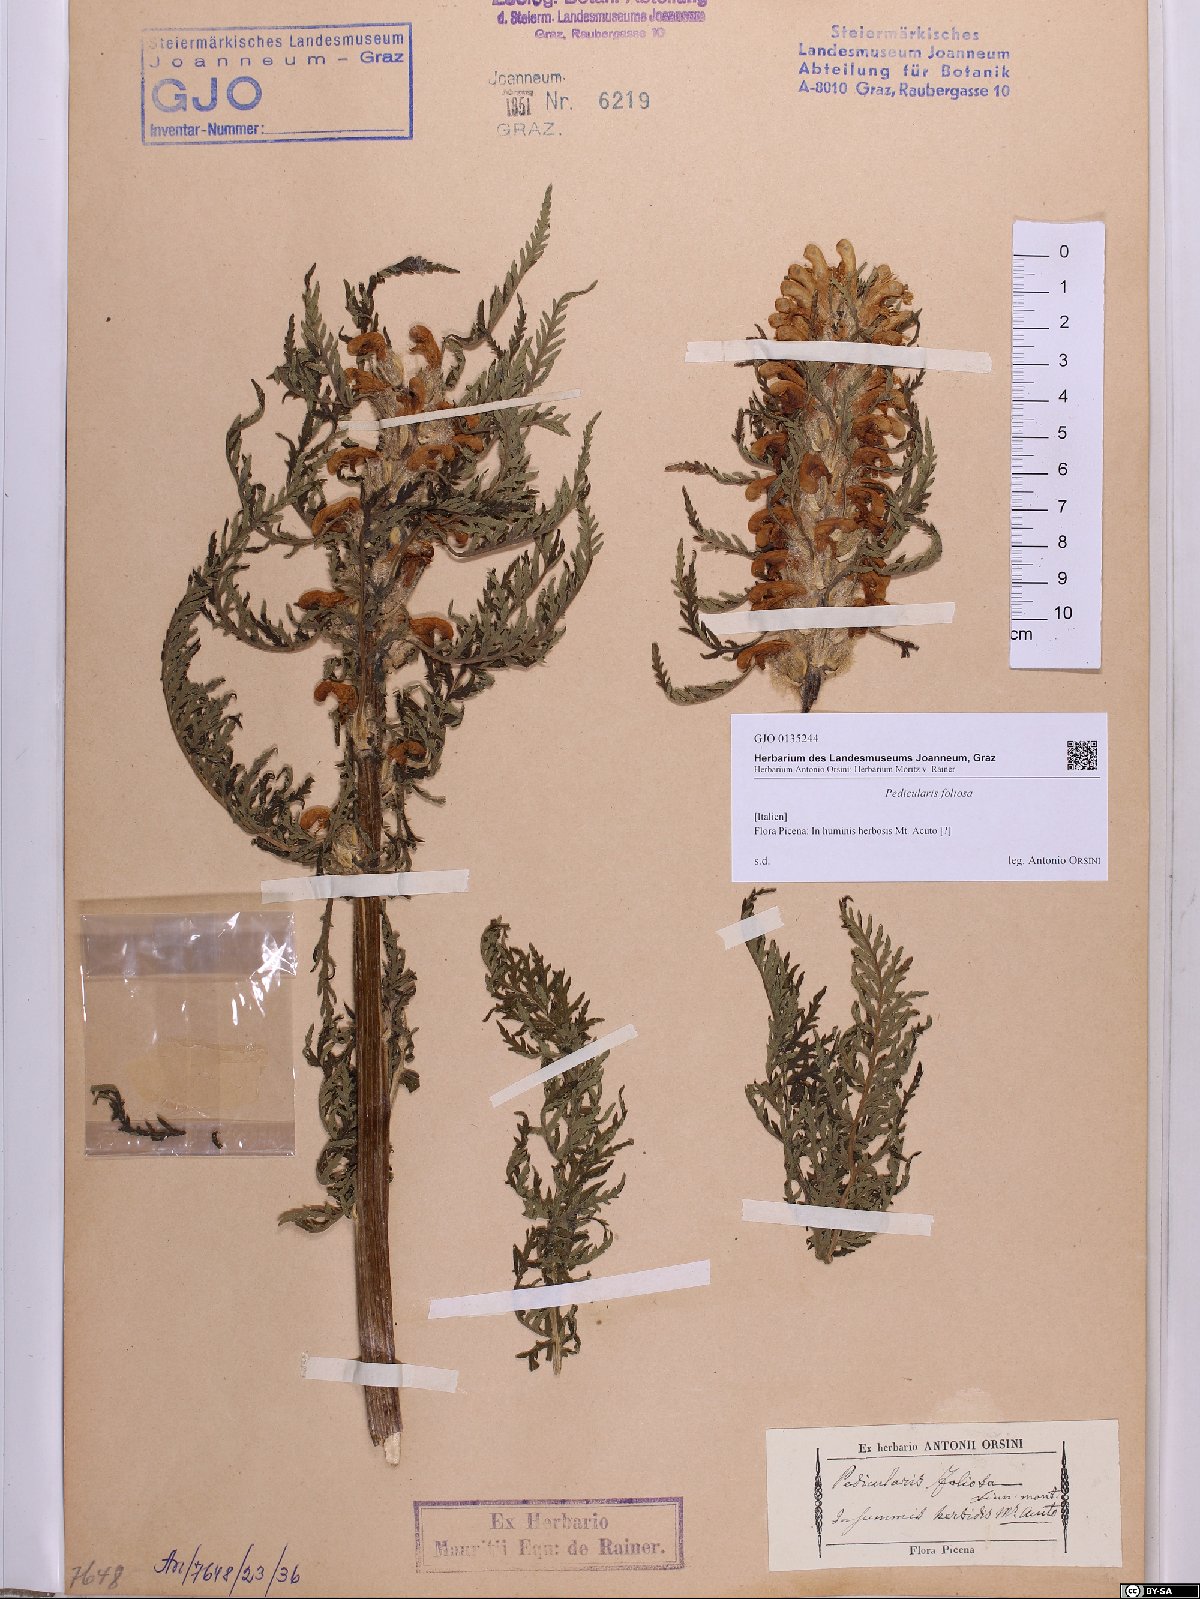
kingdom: Plantae
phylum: Tracheophyta
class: Magnoliopsida
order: Lamiales
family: Orobanchaceae
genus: Pedicularis
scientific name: Pedicularis foliosa
